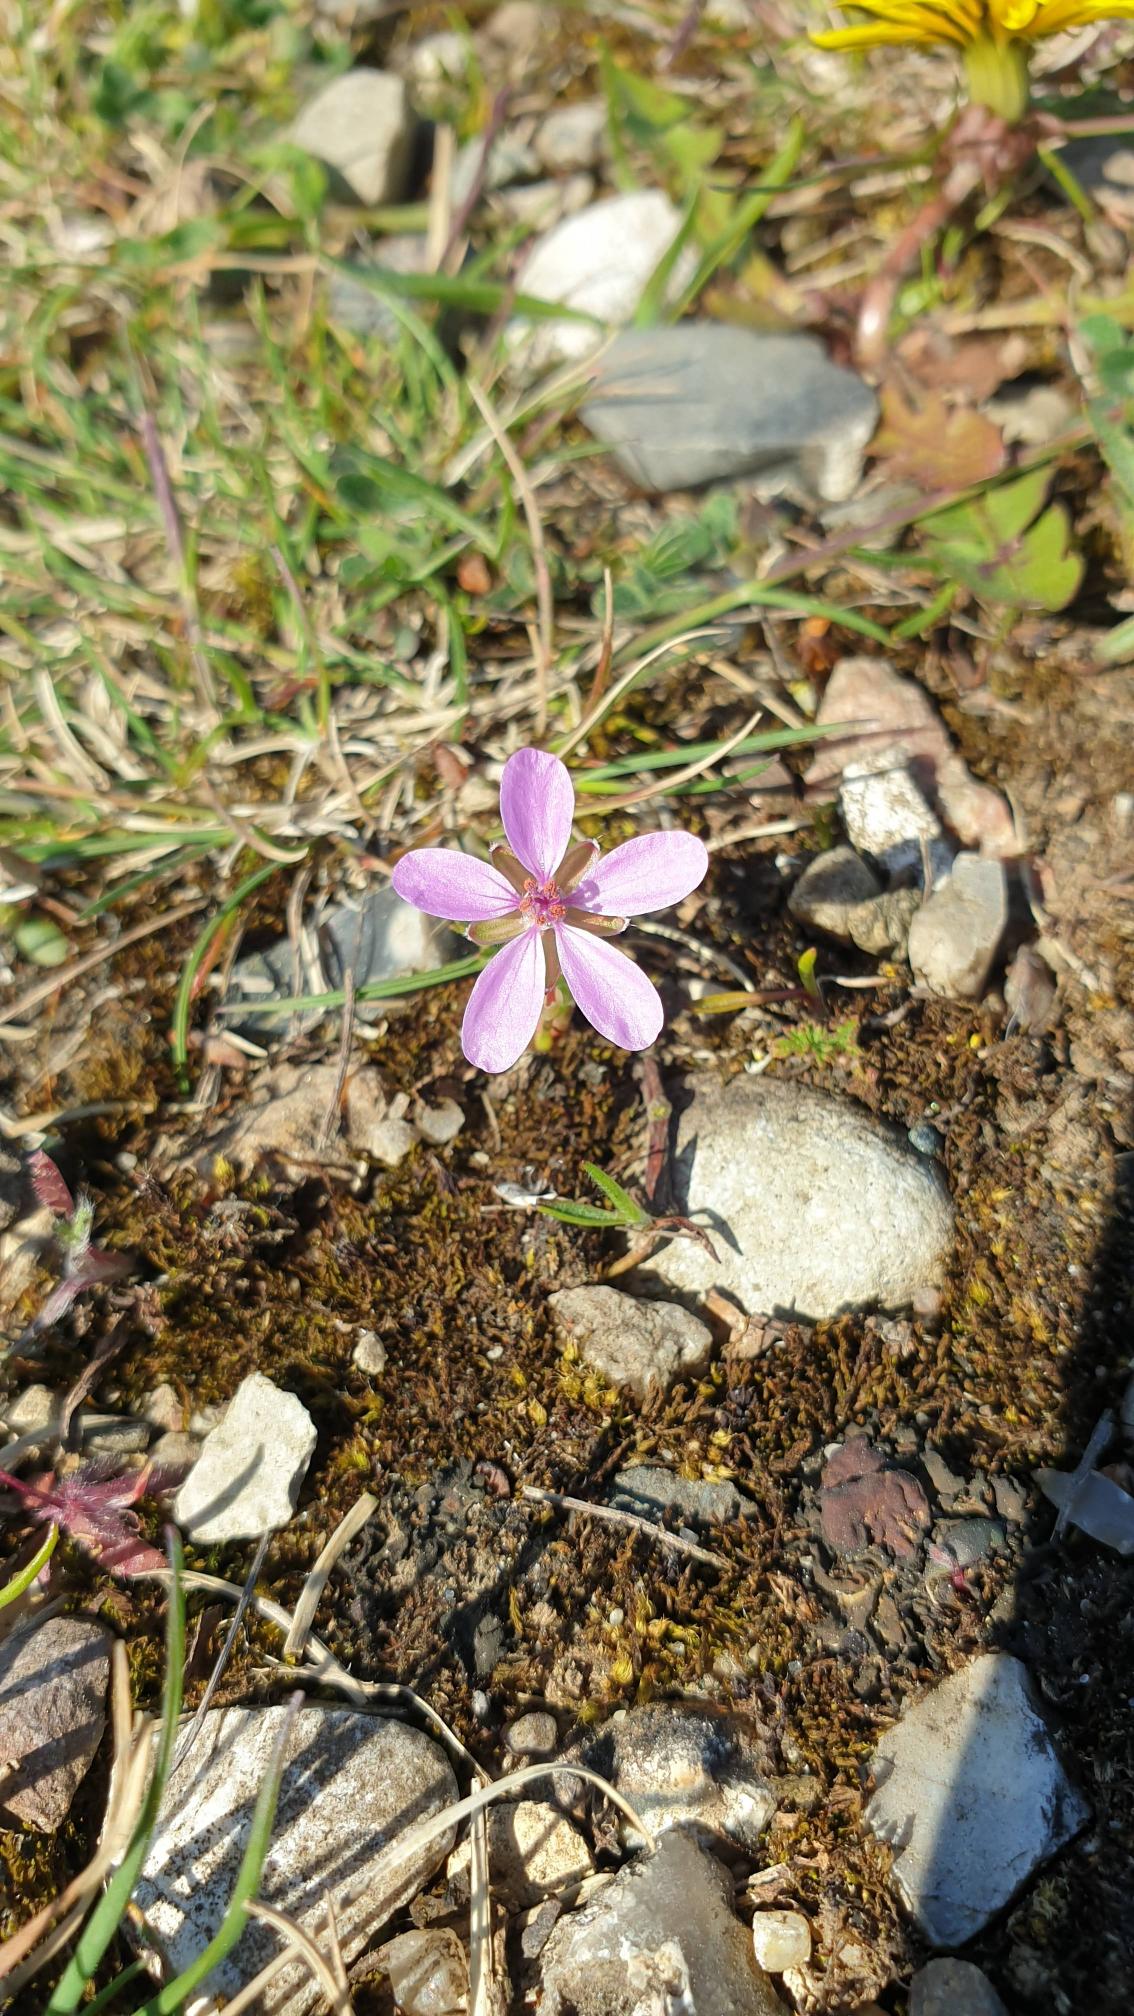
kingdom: Plantae
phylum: Tracheophyta
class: Magnoliopsida
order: Geraniales
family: Geraniaceae
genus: Erodium
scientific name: Erodium cicutarium
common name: Hejrenæb
